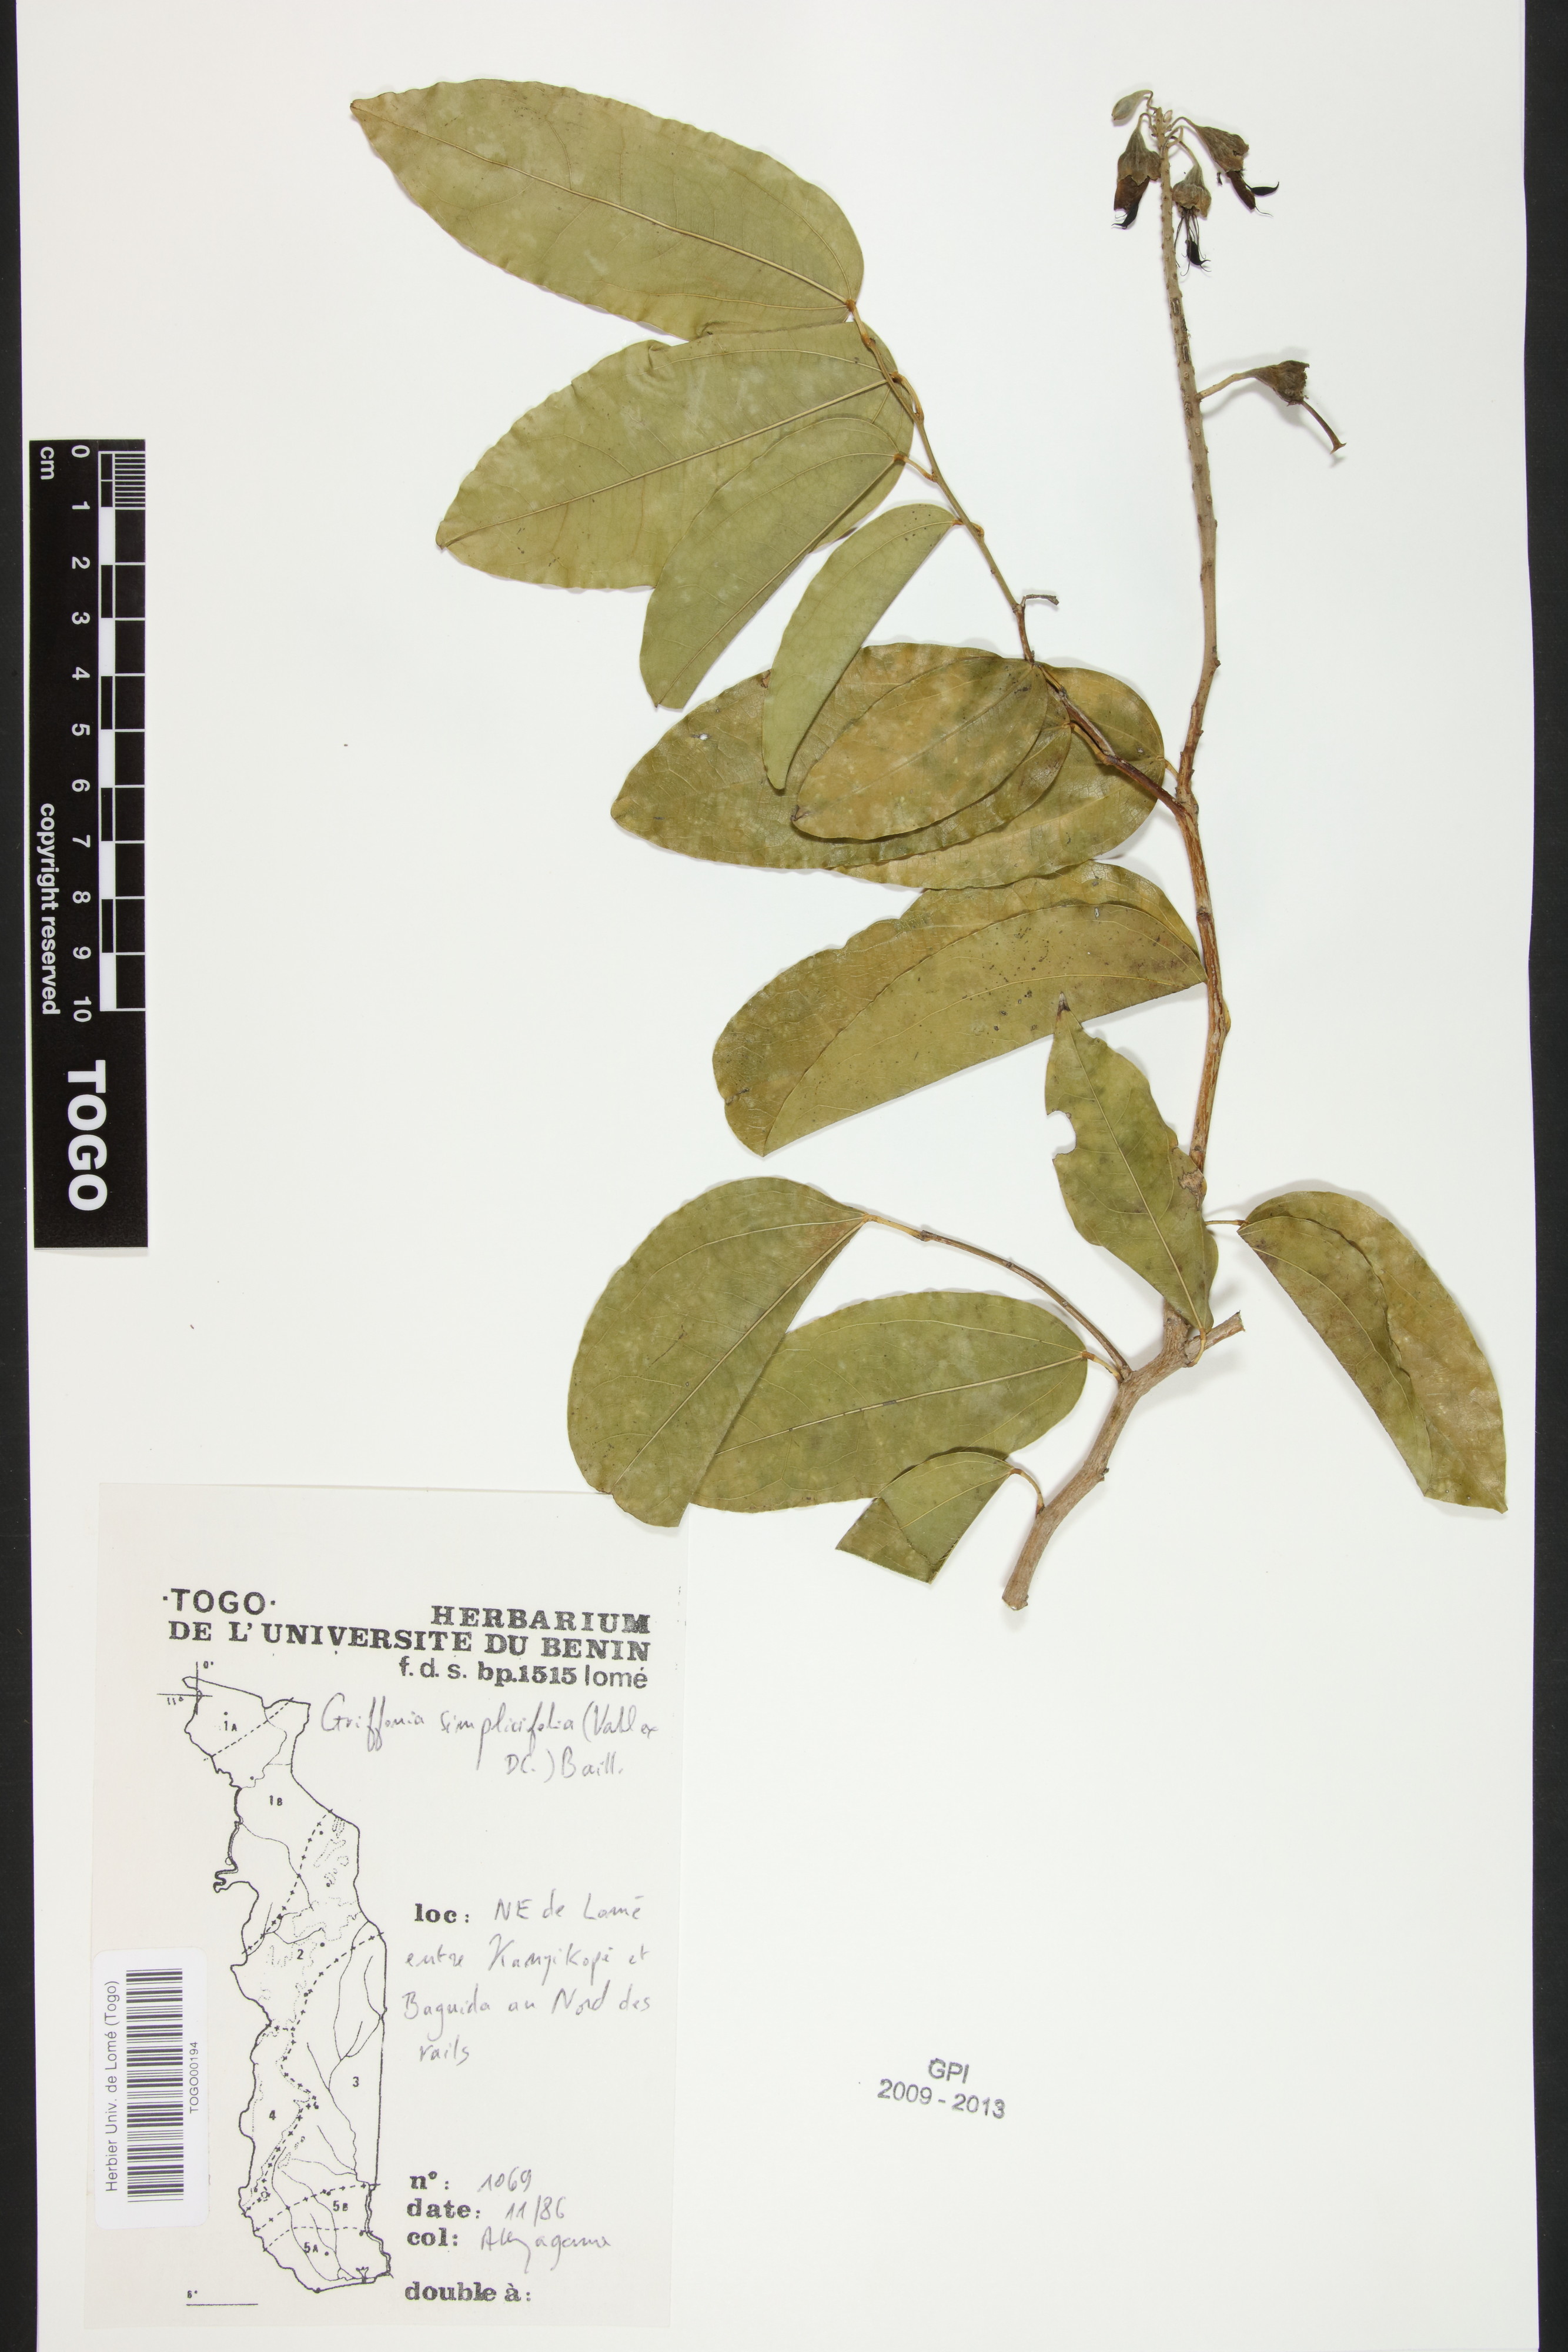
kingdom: Plantae
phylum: Tracheophyta
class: Magnoliopsida
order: Fabales
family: Fabaceae
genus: Griffonia
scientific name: Griffonia simplicifolia
